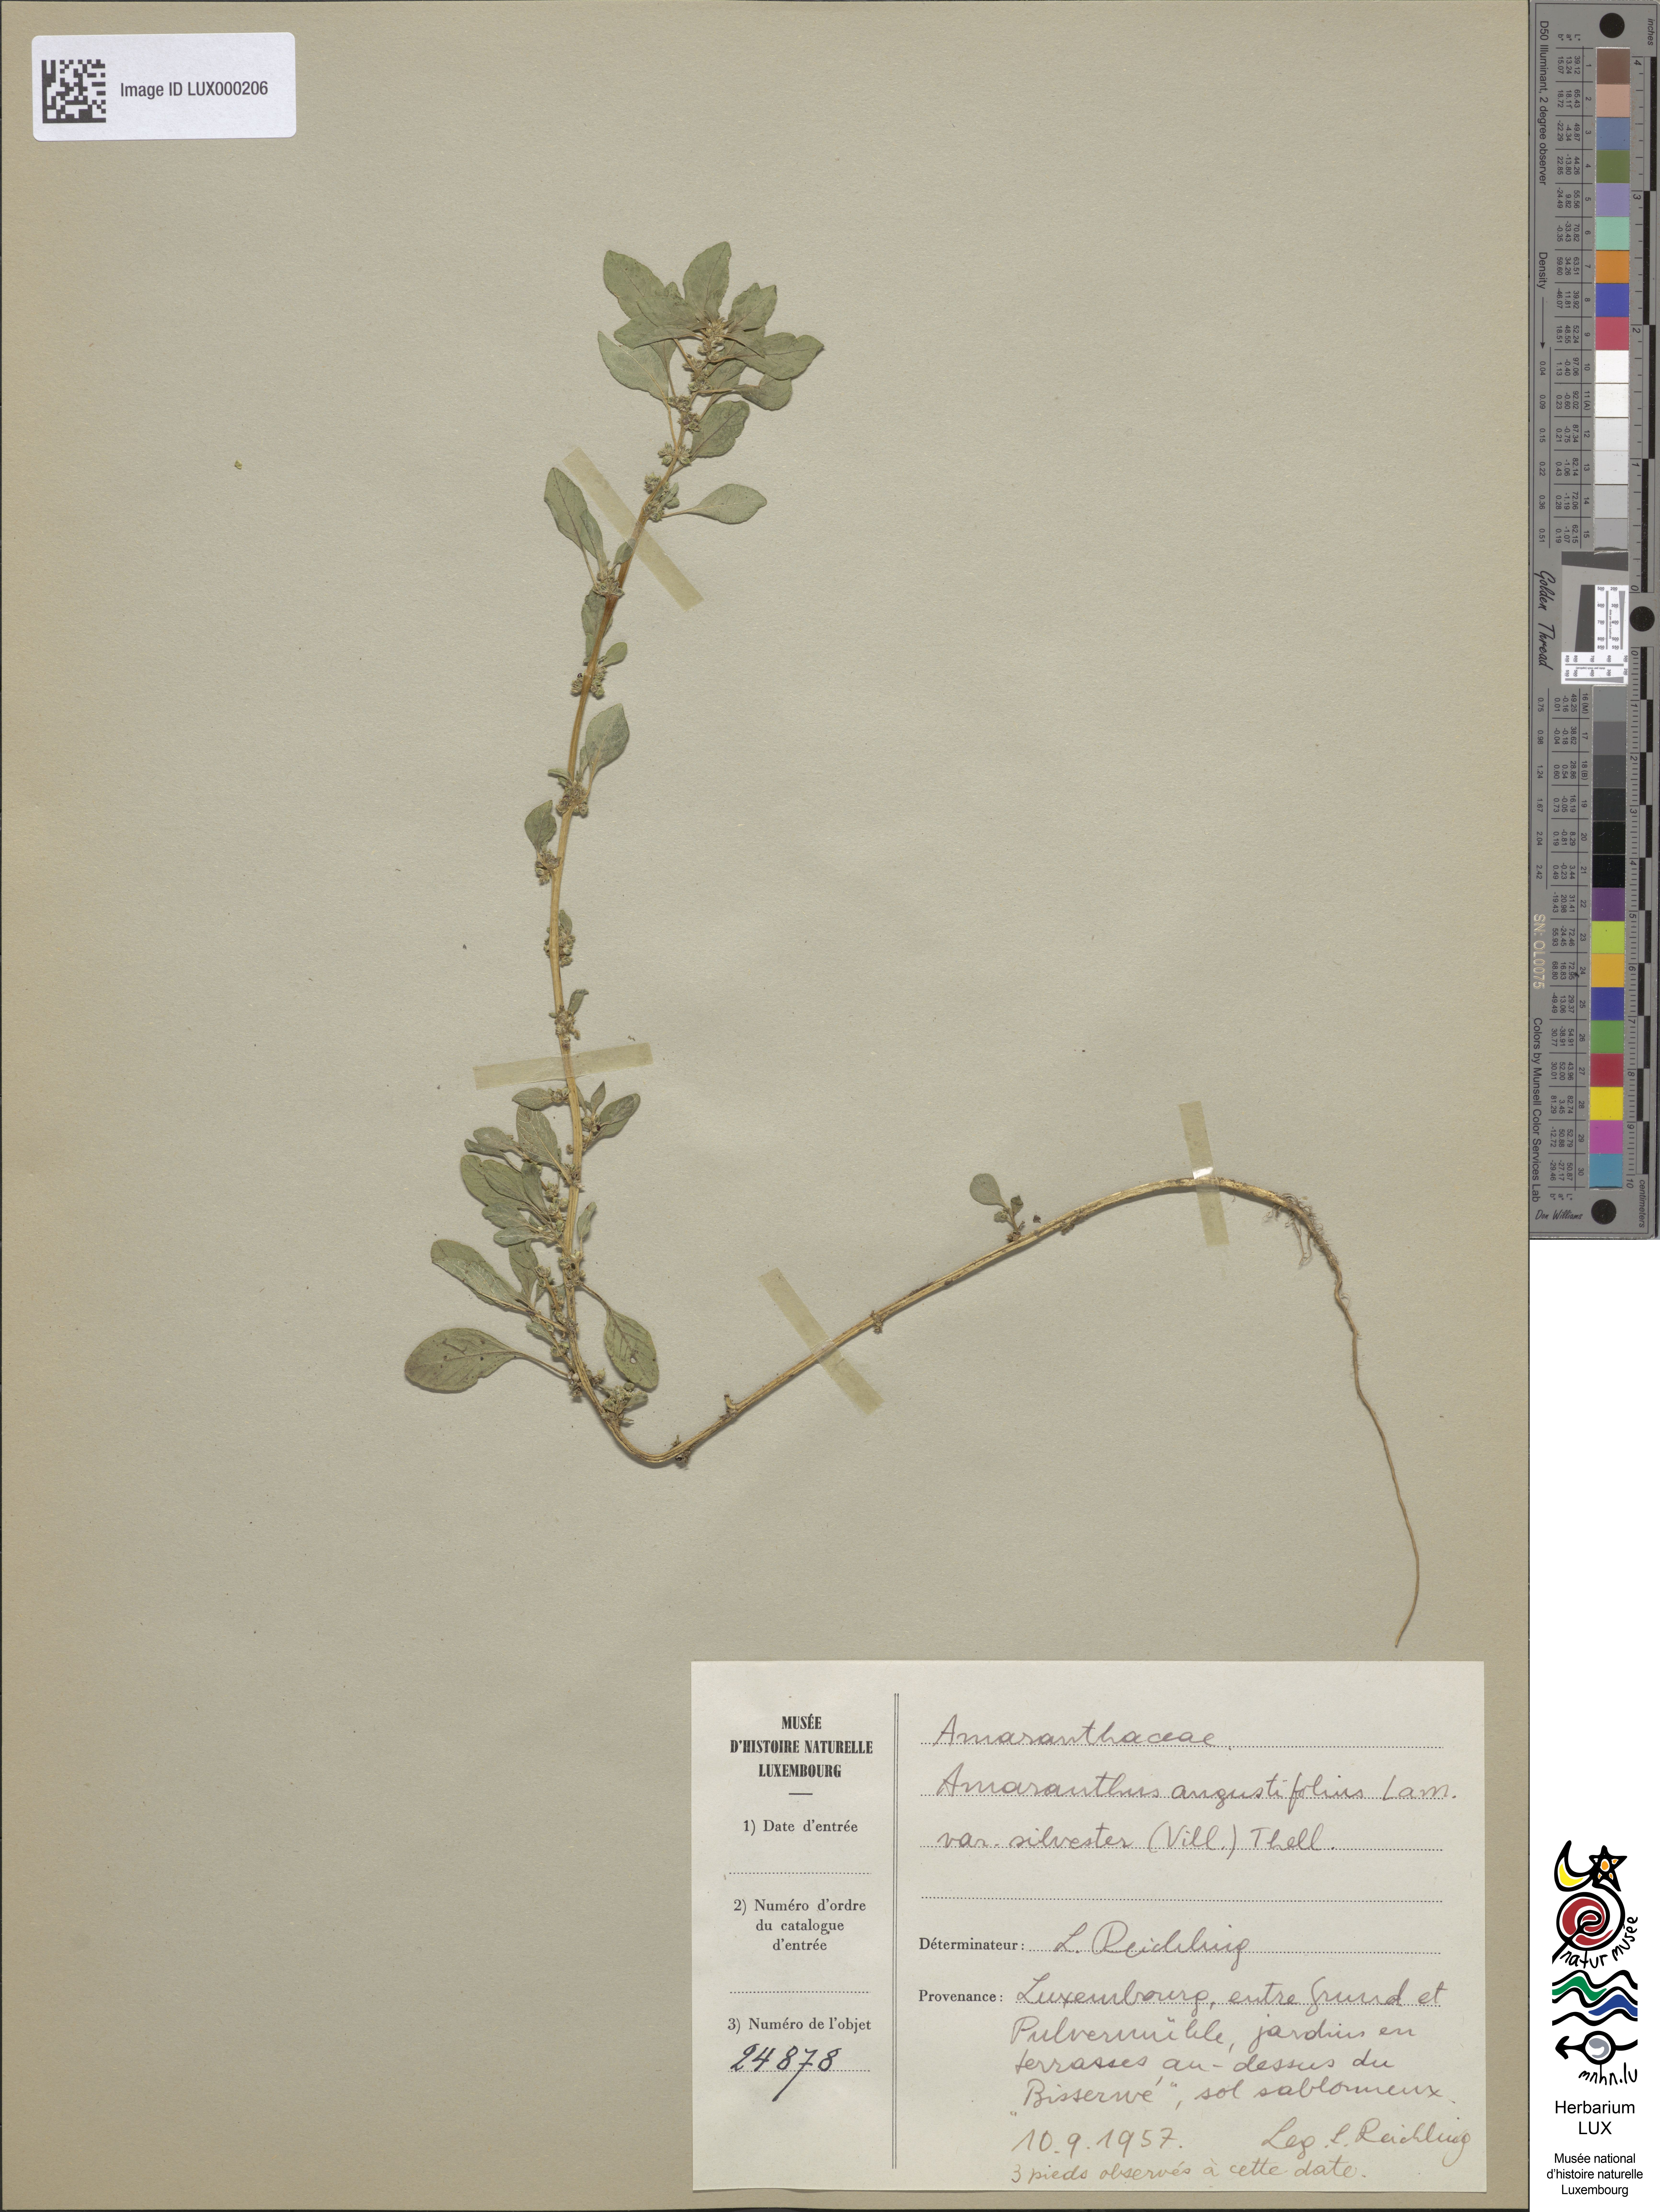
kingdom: Plantae
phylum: Tracheophyta
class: Magnoliopsida
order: Caryophyllales
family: Amaranthaceae
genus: Amaranthus
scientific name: Amaranthus
